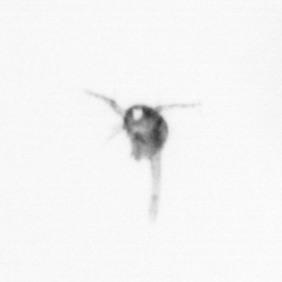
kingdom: Animalia
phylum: Arthropoda
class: Copepoda
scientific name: Copepoda
